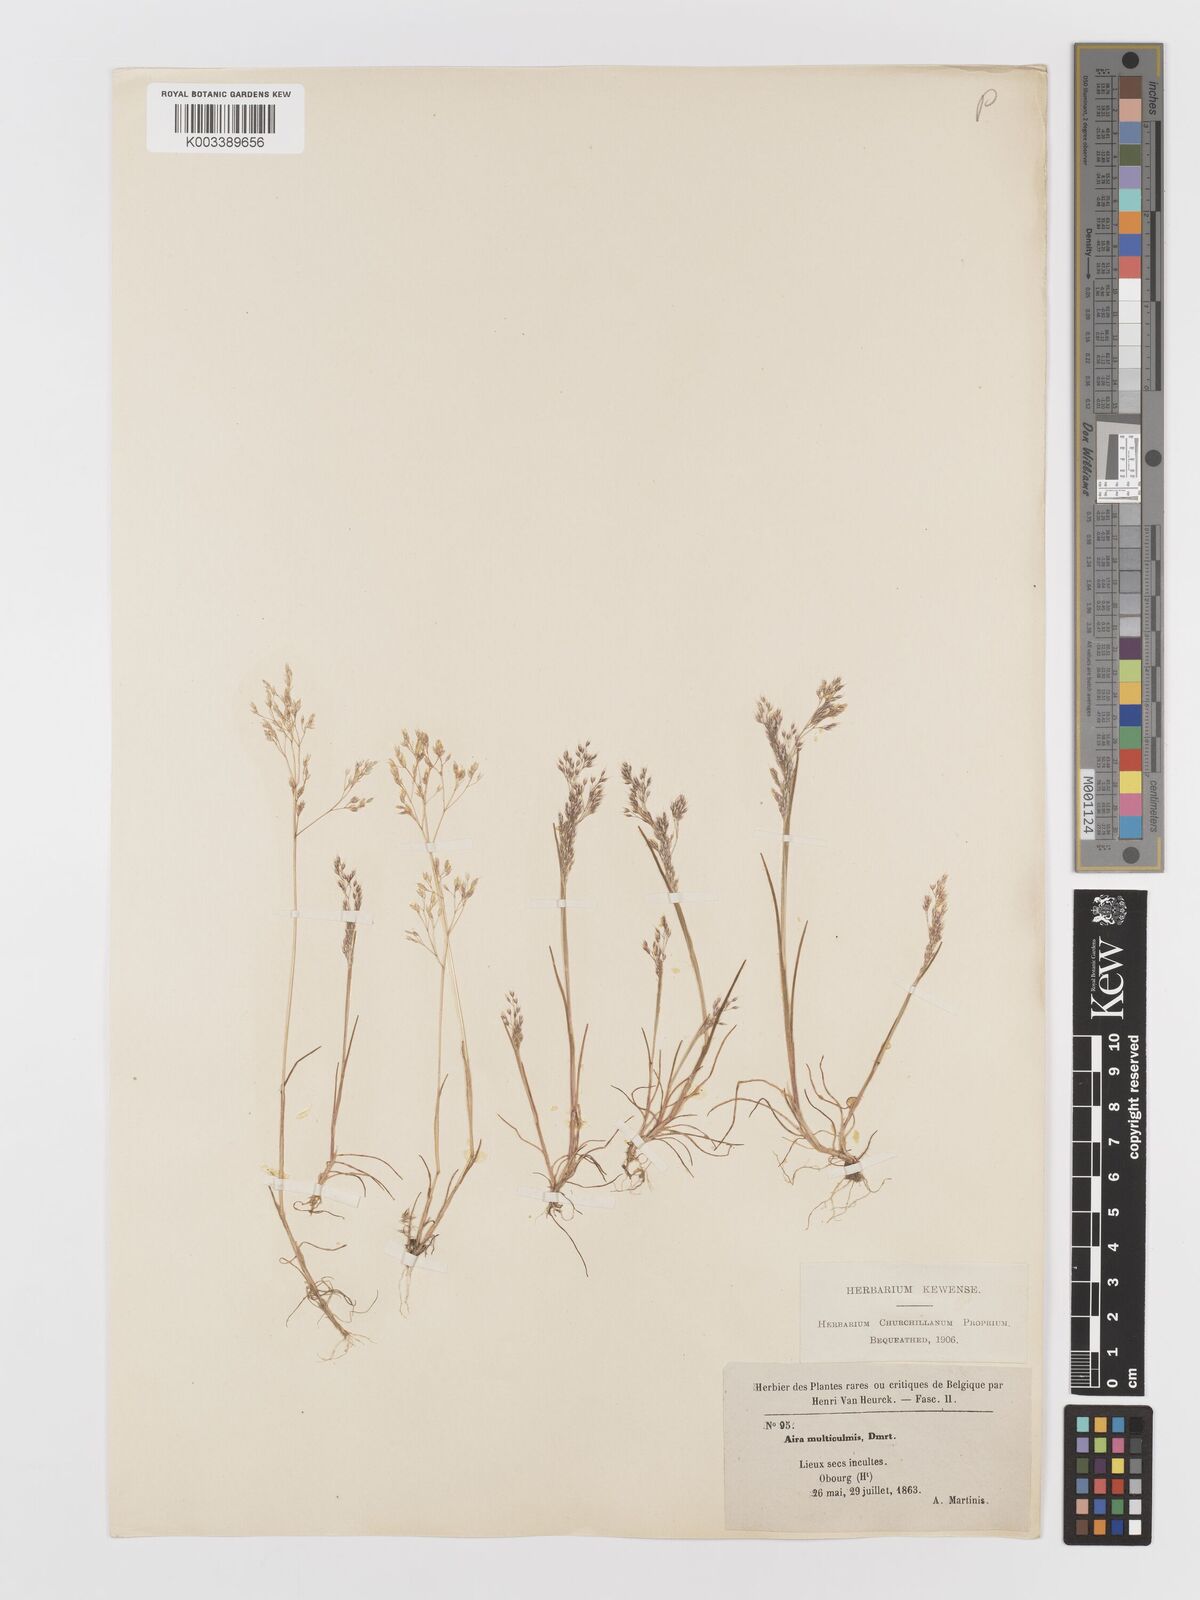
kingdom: Plantae
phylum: Tracheophyta
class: Liliopsida
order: Poales
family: Poaceae
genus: Aira
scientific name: Aira caryophyllea
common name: Silver hairgrass
